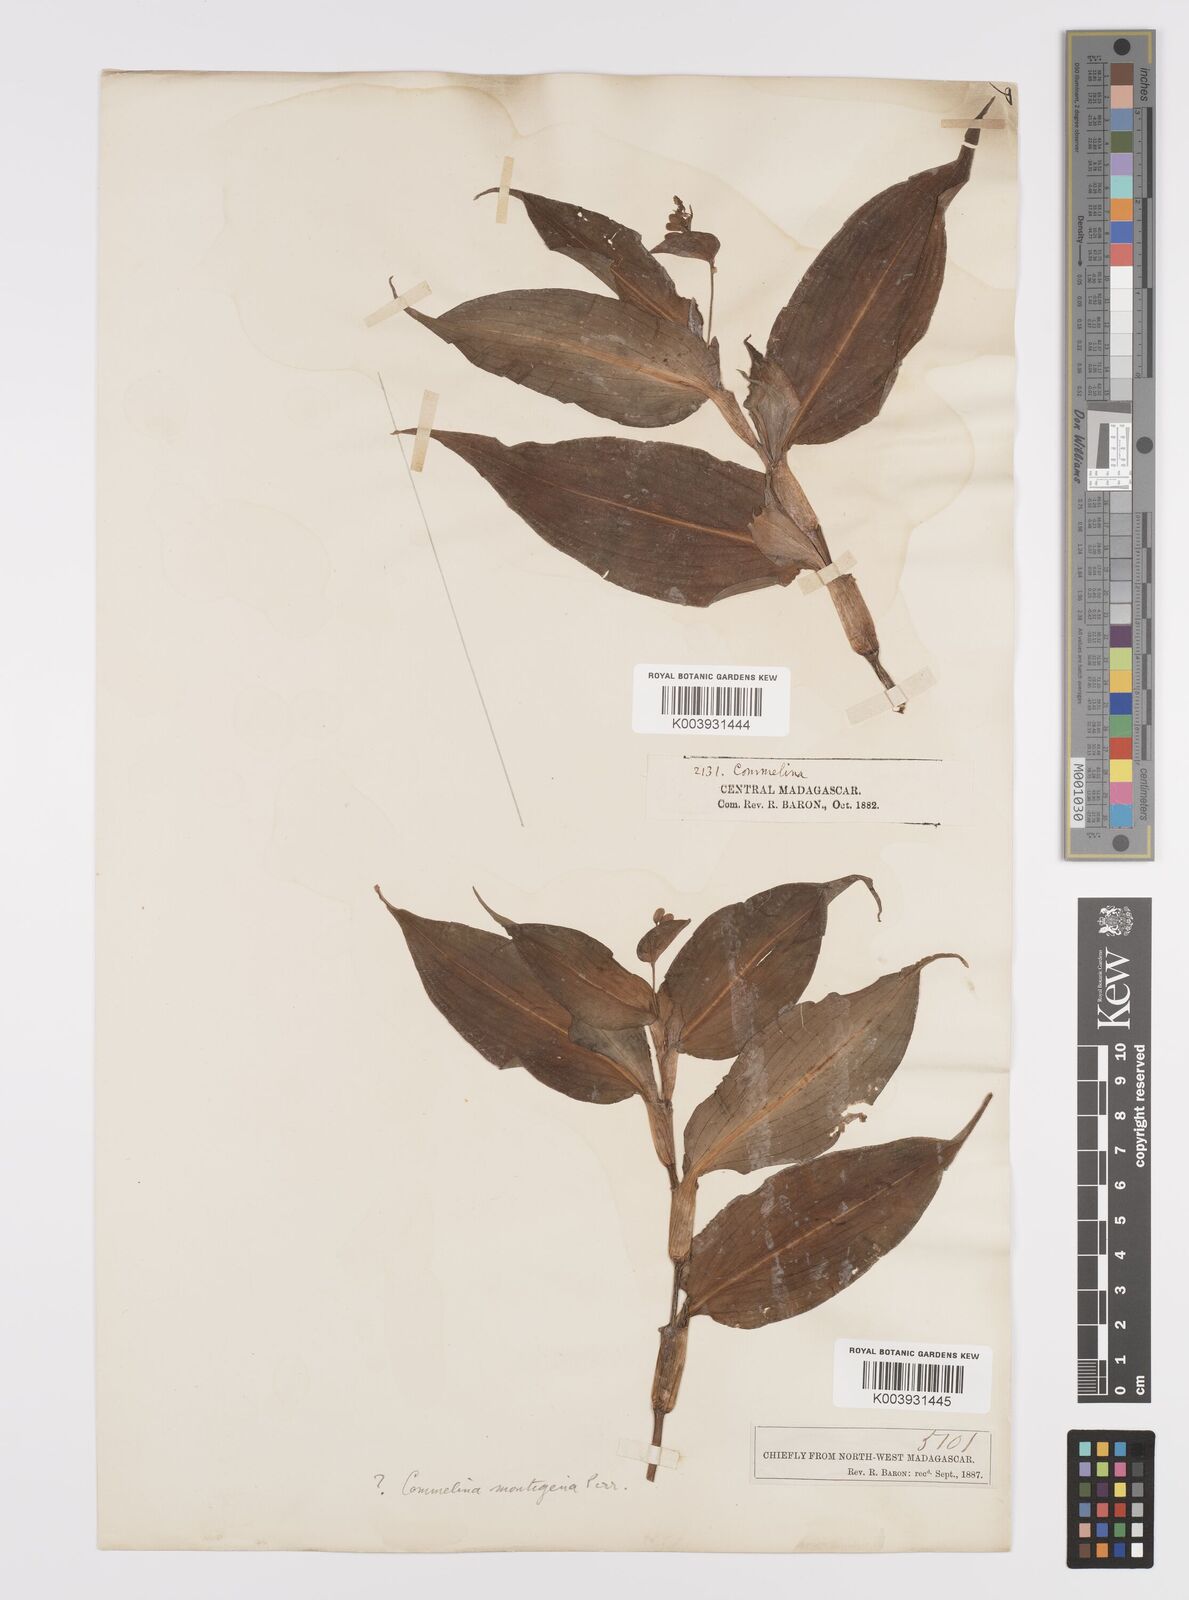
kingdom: Plantae
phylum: Tracheophyta
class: Liliopsida
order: Commelinales
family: Commelinaceae
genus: Commelina
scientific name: Commelina montigena
